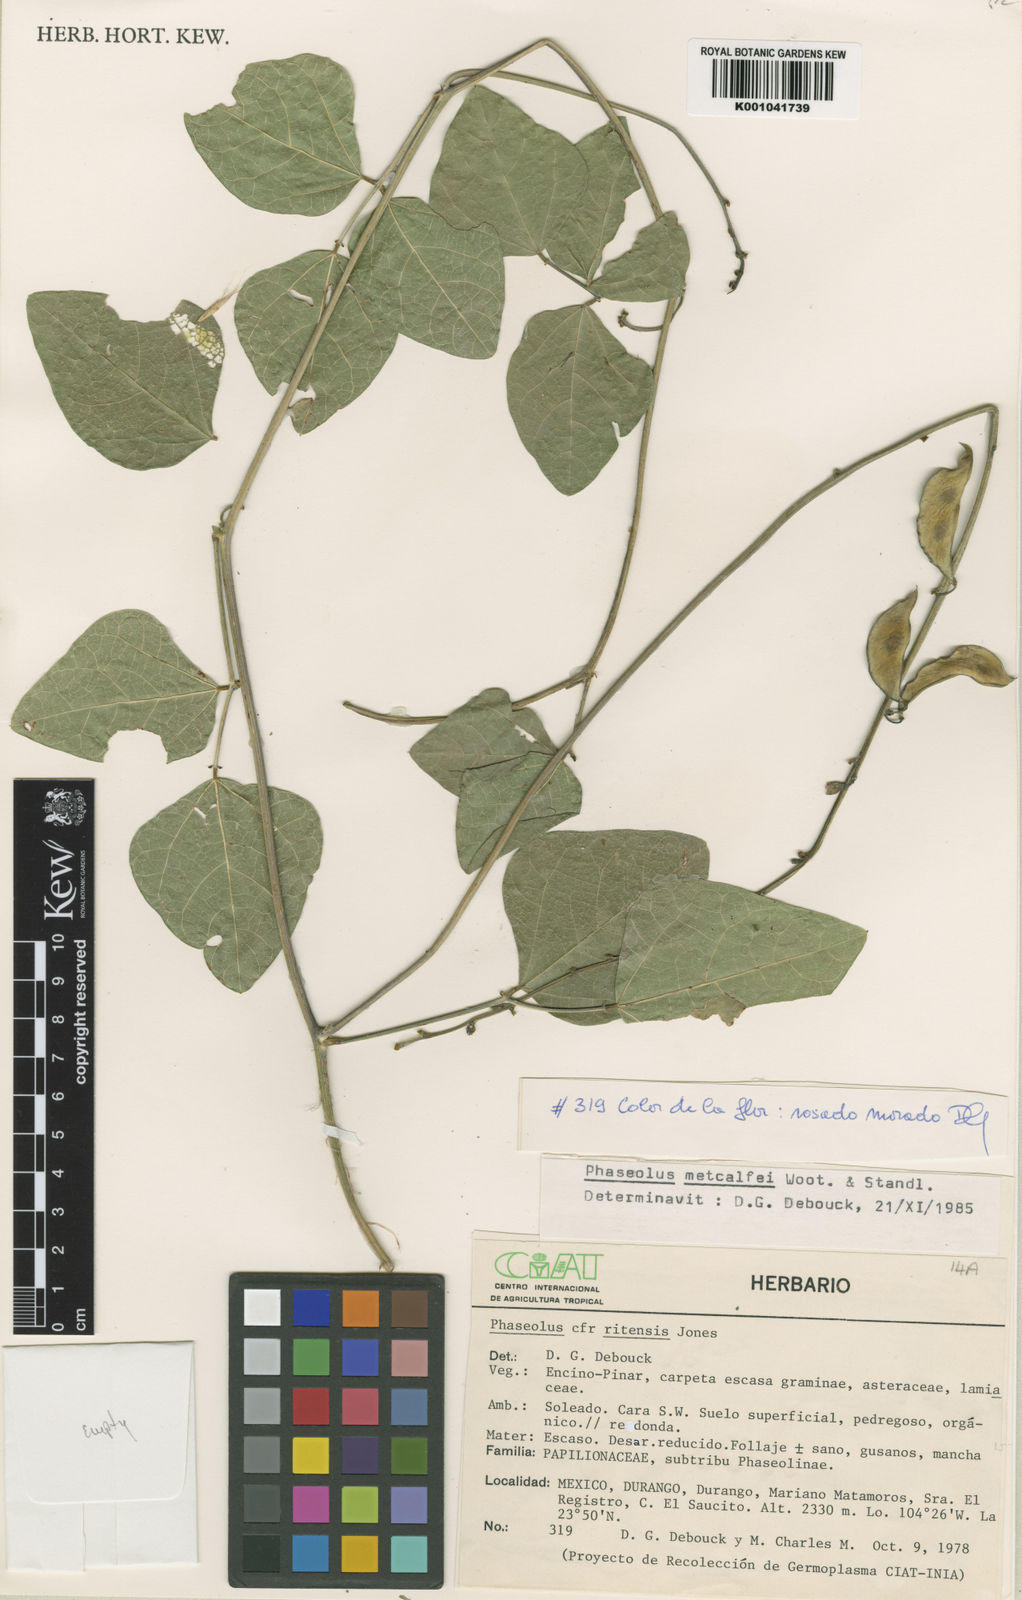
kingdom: Plantae
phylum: Tracheophyta
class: Magnoliopsida
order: Fabales
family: Fabaceae
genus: Phaseolus
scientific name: Phaseolus
